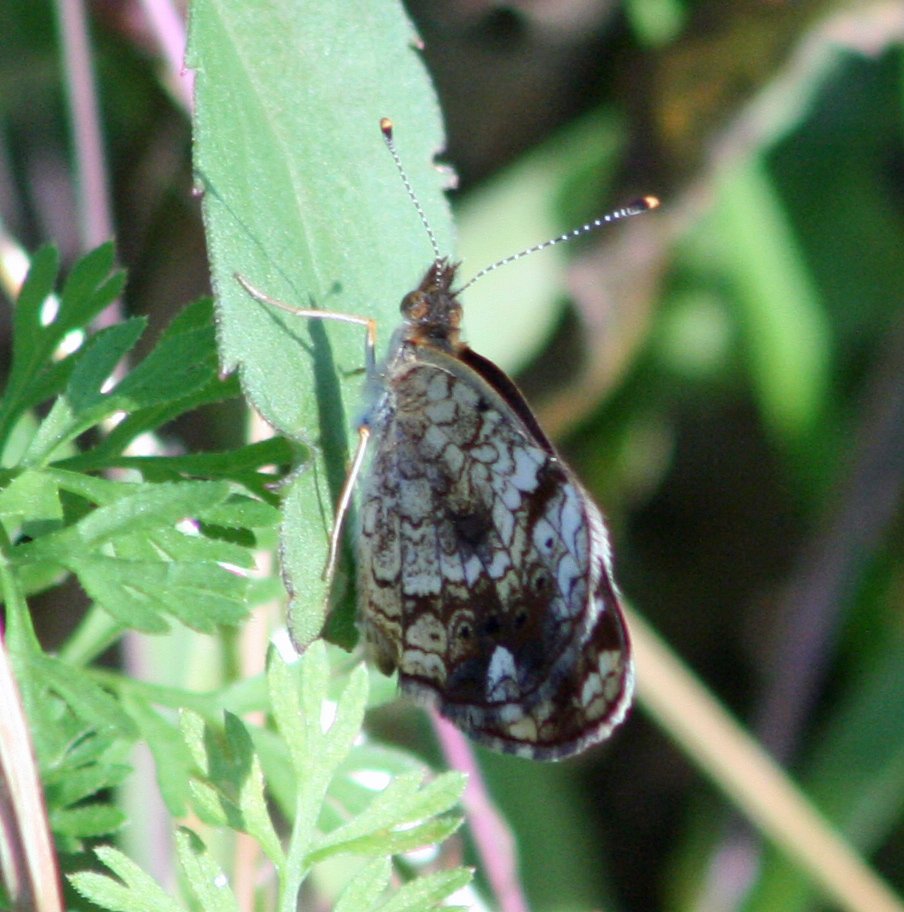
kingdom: Animalia
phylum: Arthropoda
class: Insecta
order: Lepidoptera
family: Nymphalidae
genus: Phyciodes
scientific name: Phyciodes tharos
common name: Northern Crescent
